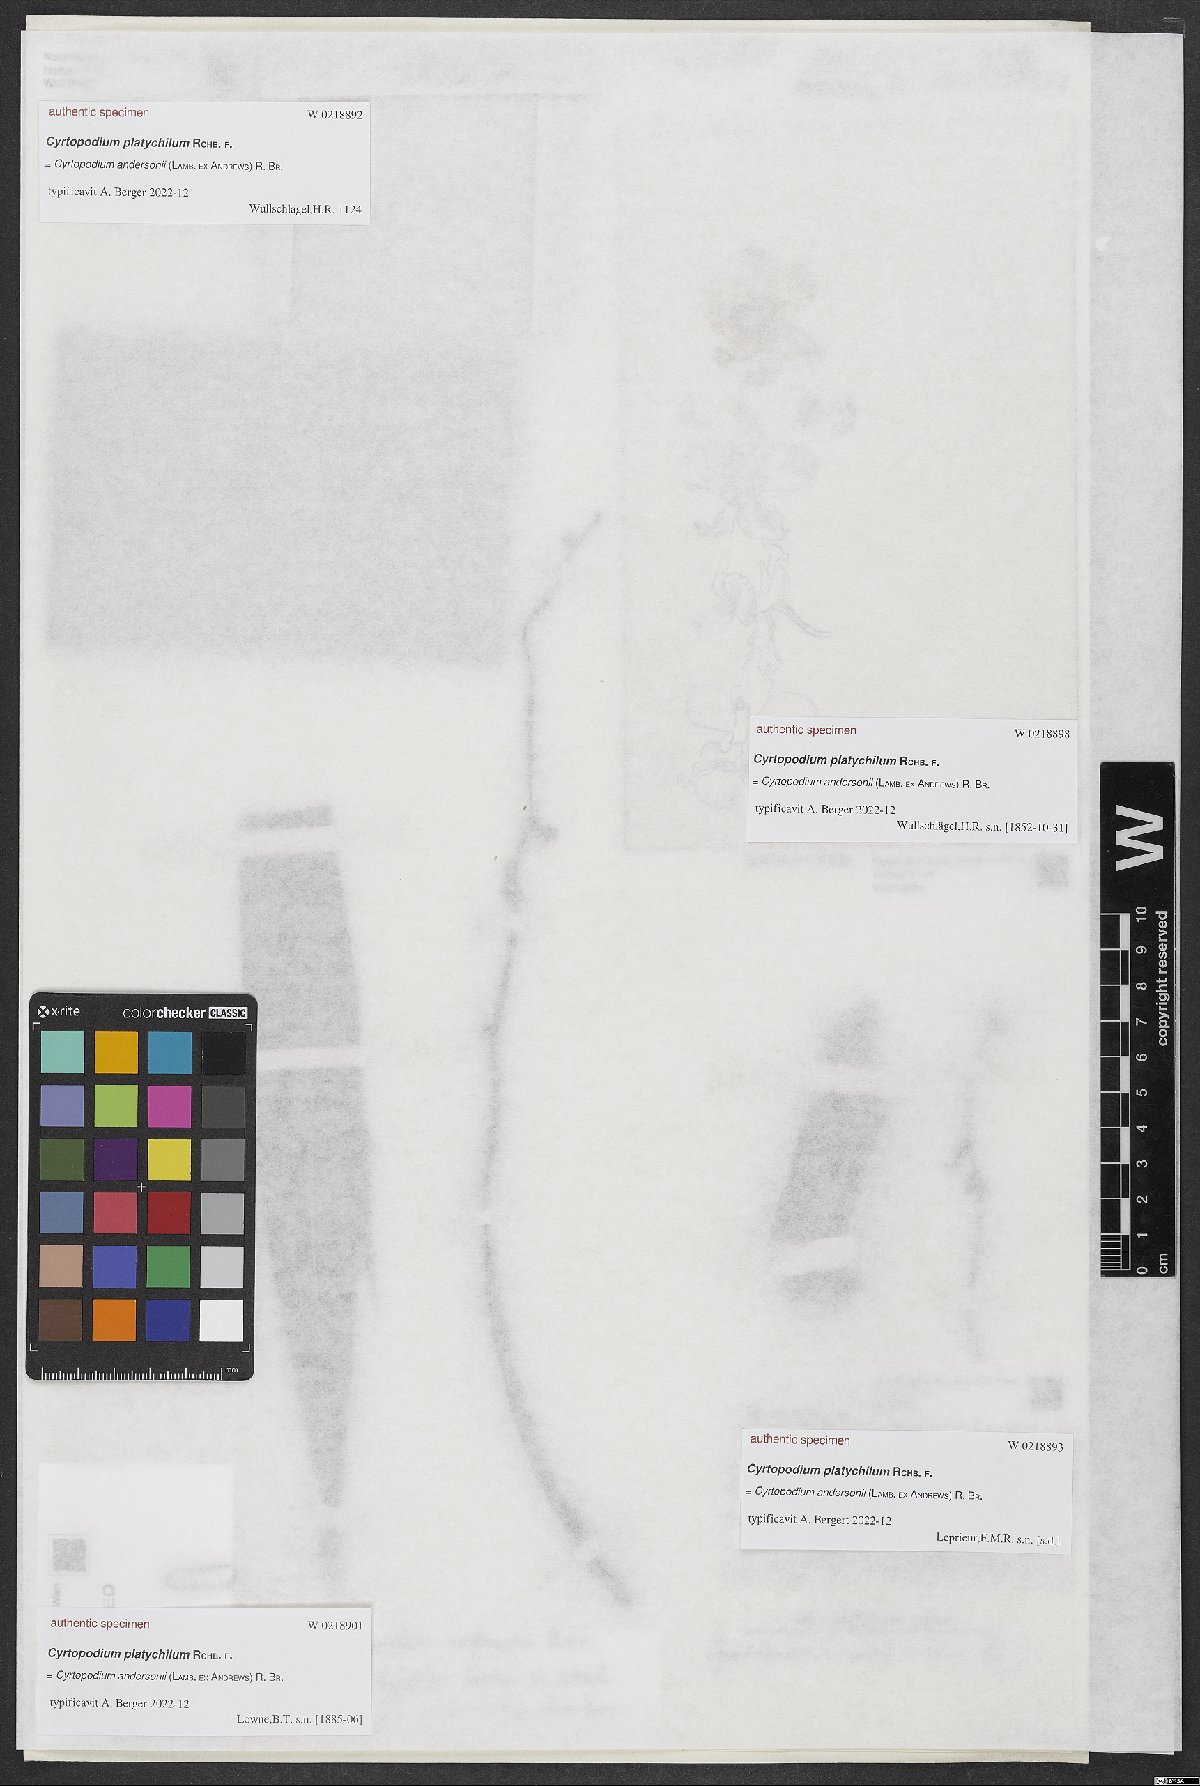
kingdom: Plantae
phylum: Tracheophyta
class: Liliopsida
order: Asparagales
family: Orchidaceae
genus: Cyrtopodium
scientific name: Cyrtopodium
